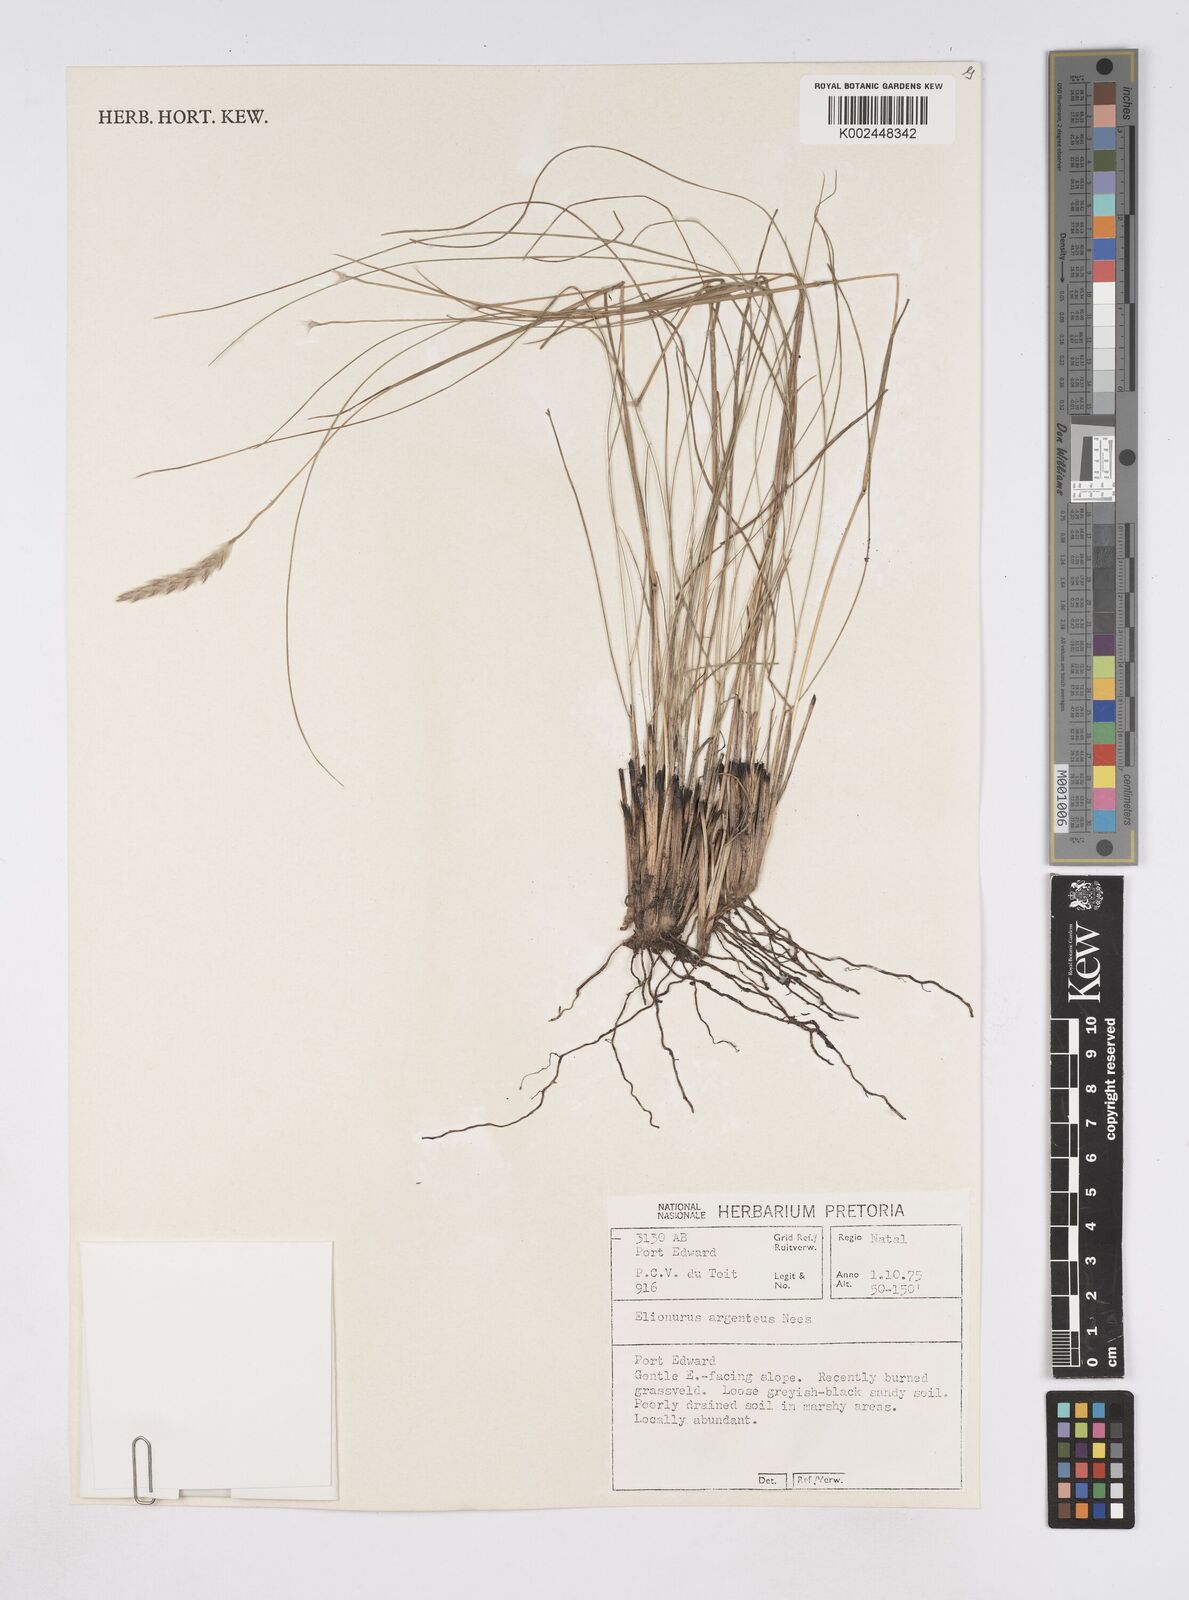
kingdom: Plantae
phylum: Tracheophyta
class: Liliopsida
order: Poales
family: Poaceae
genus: Elionurus
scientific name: Elionurus muticus
